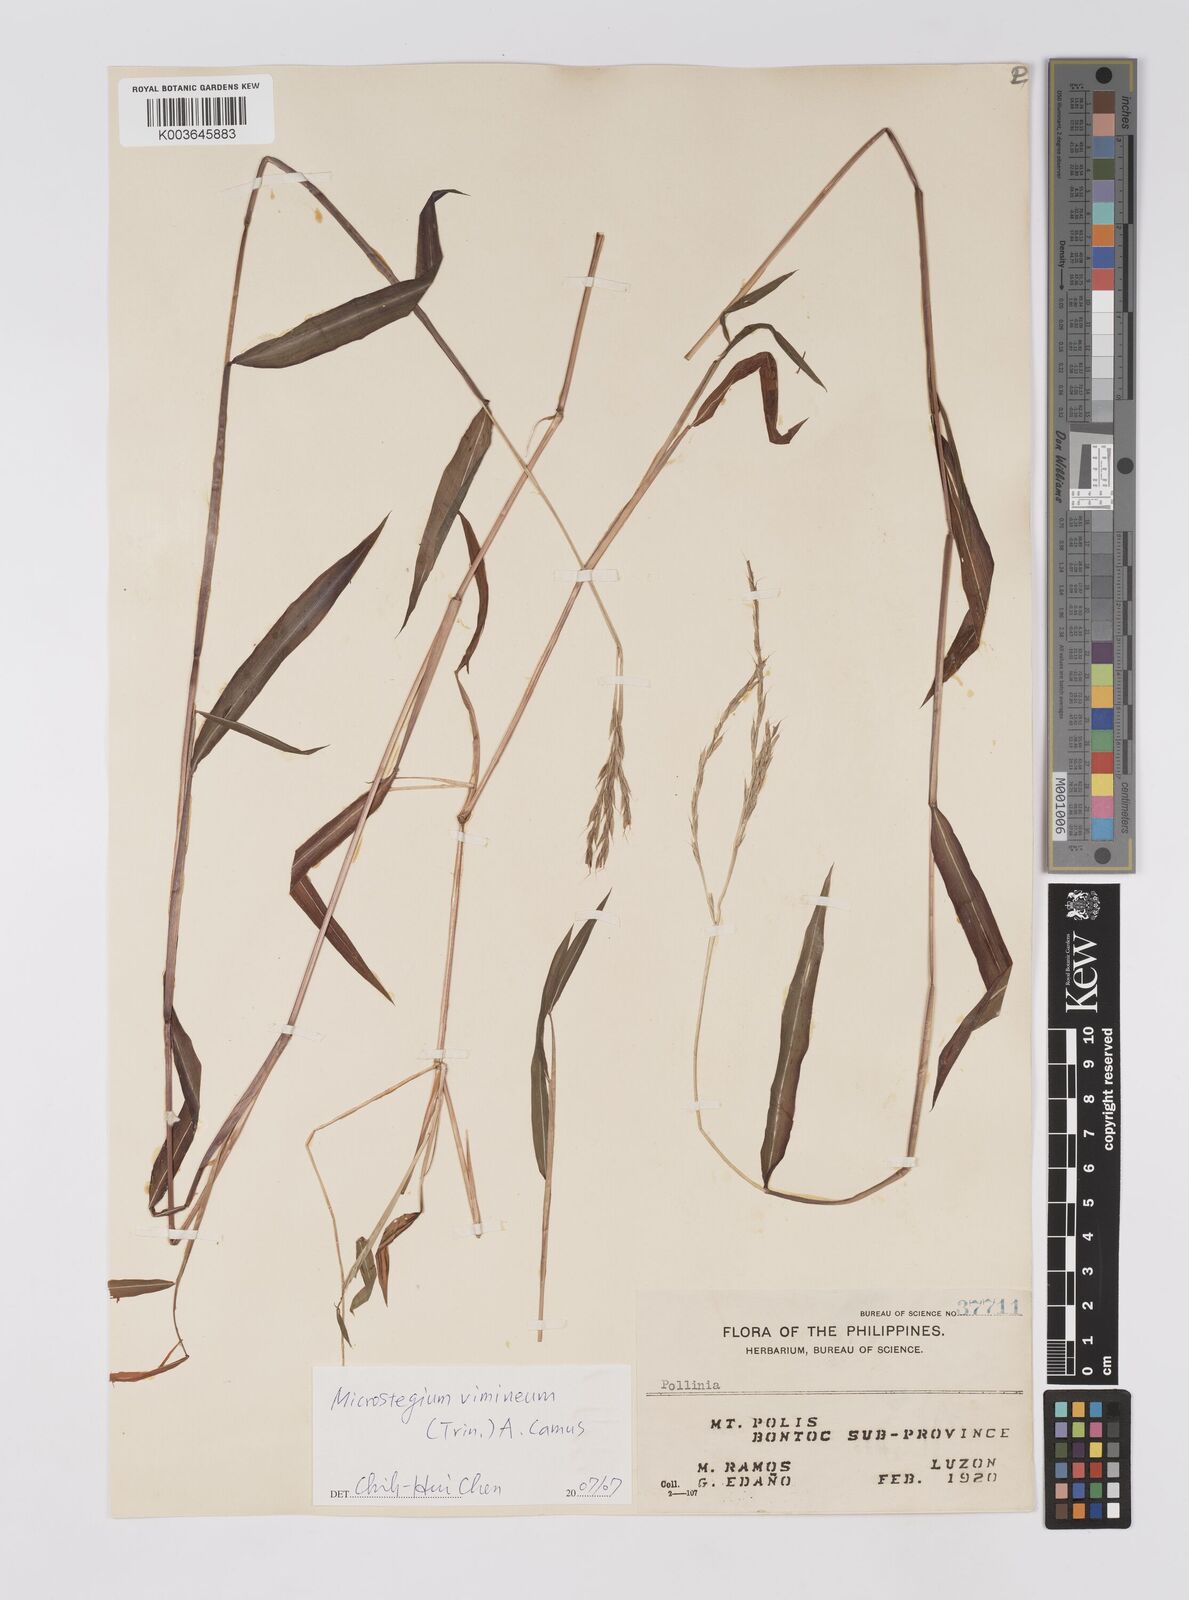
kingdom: Plantae
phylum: Tracheophyta
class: Liliopsida
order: Poales
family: Poaceae
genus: Microstegium
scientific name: Microstegium vimineum
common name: Japanese stiltgrass
